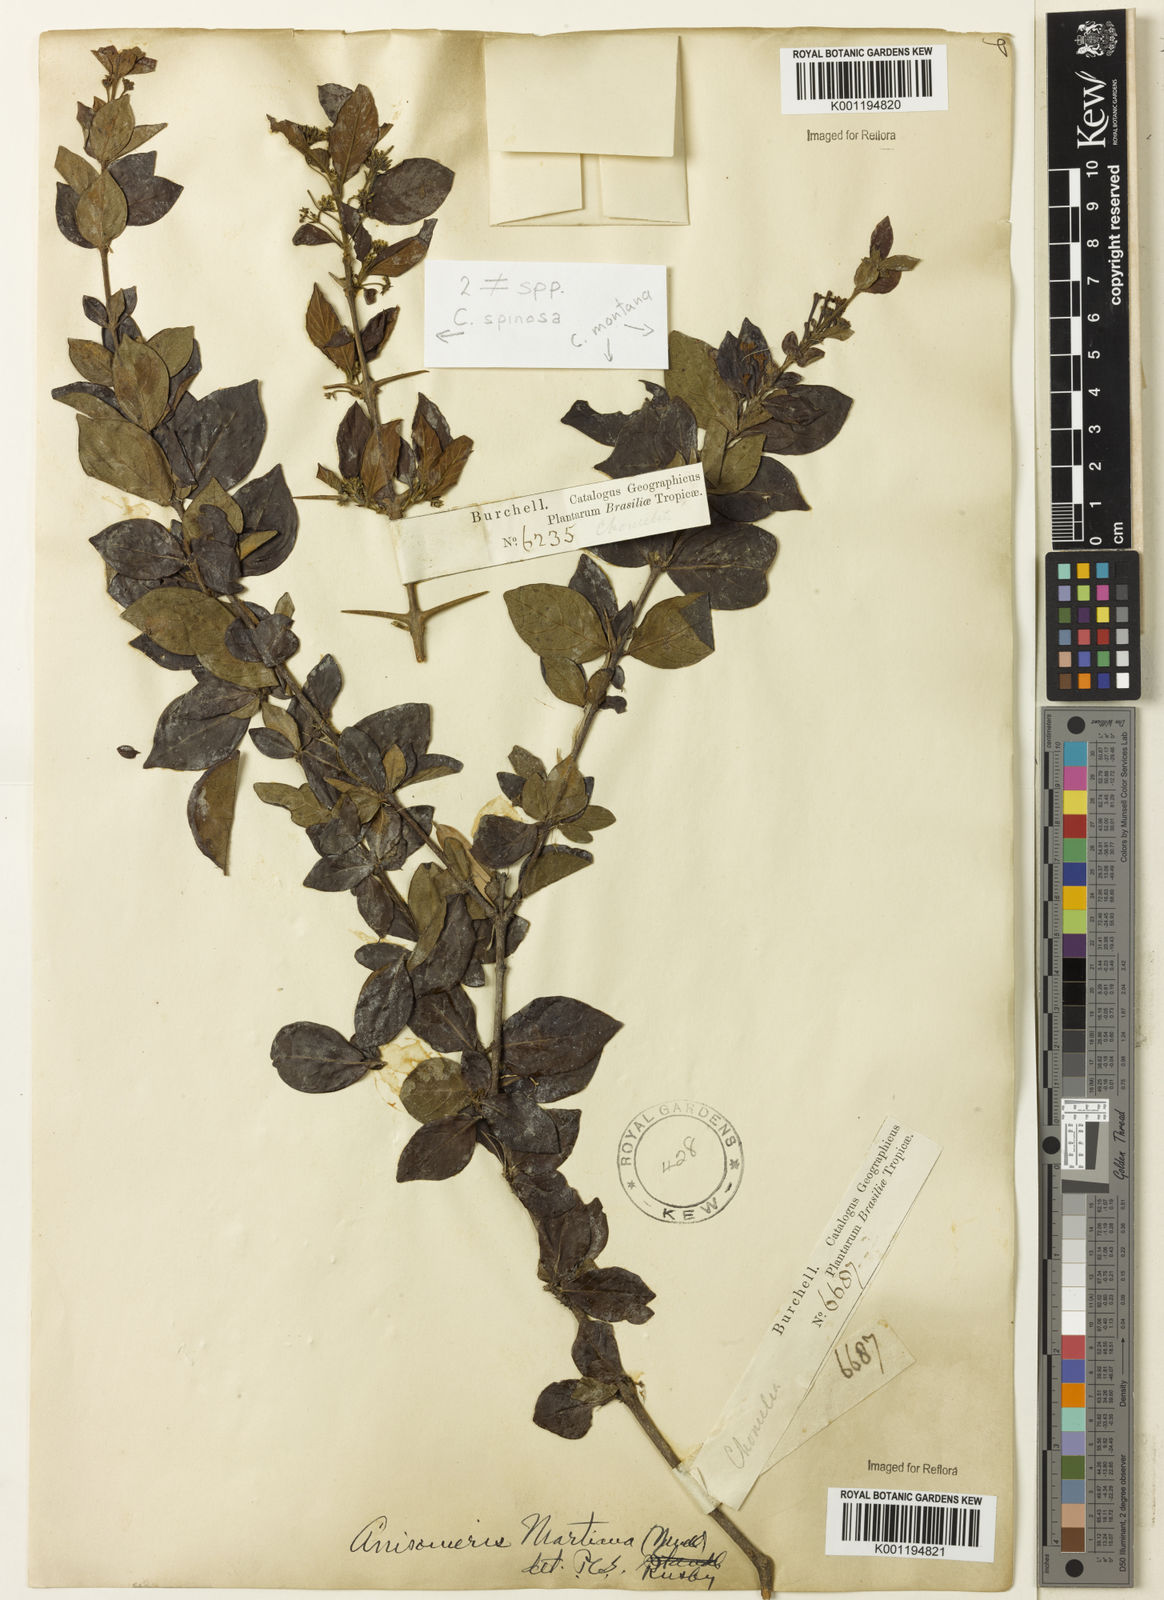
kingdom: Plantae
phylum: Tracheophyta
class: Magnoliopsida
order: Gentianales
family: Rubiaceae
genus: Chomelia
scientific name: Chomelia
